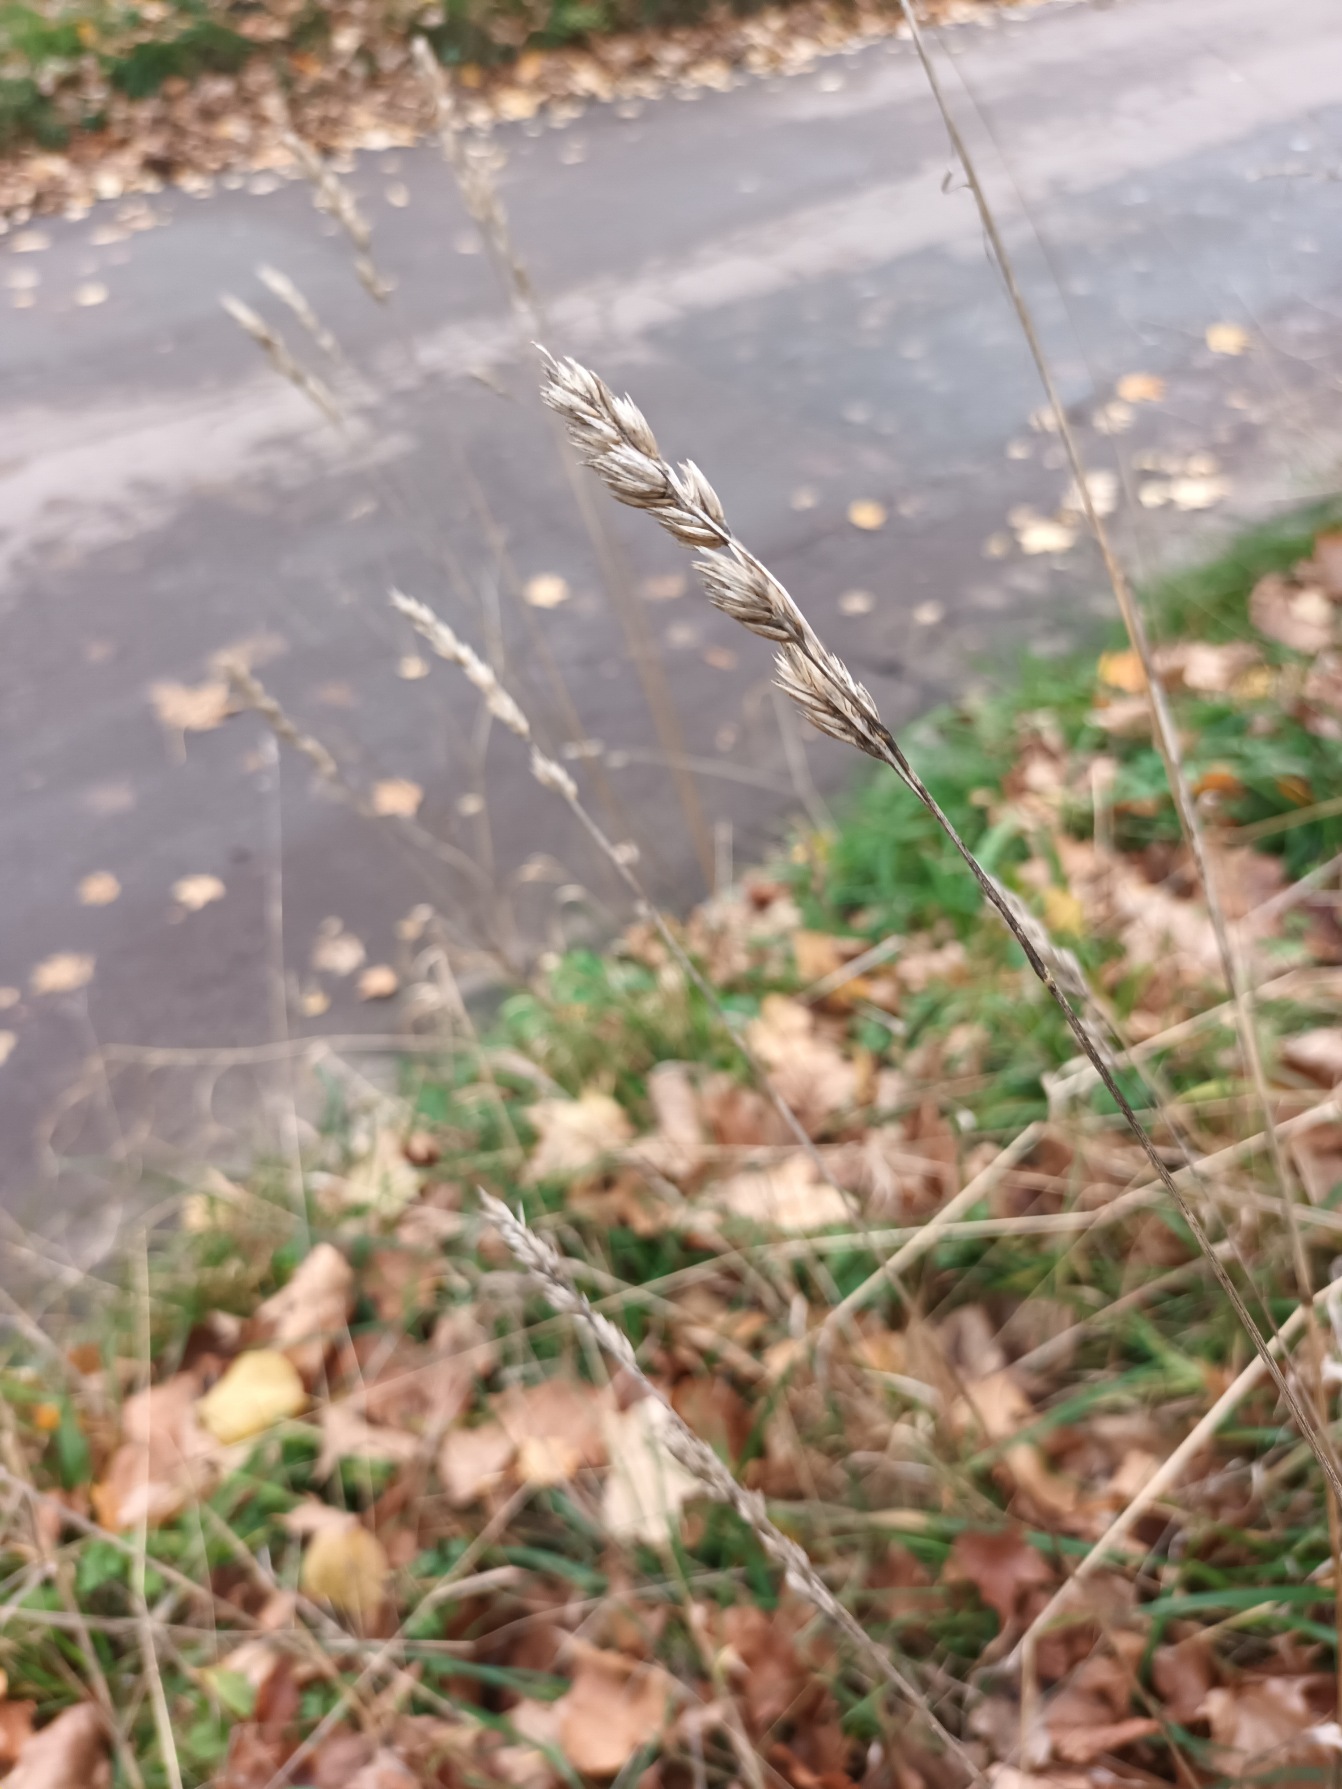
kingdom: Plantae
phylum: Tracheophyta
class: Liliopsida
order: Poales
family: Poaceae
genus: Dactylis
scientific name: Dactylis glomerata
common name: Almindelig hundegræs
